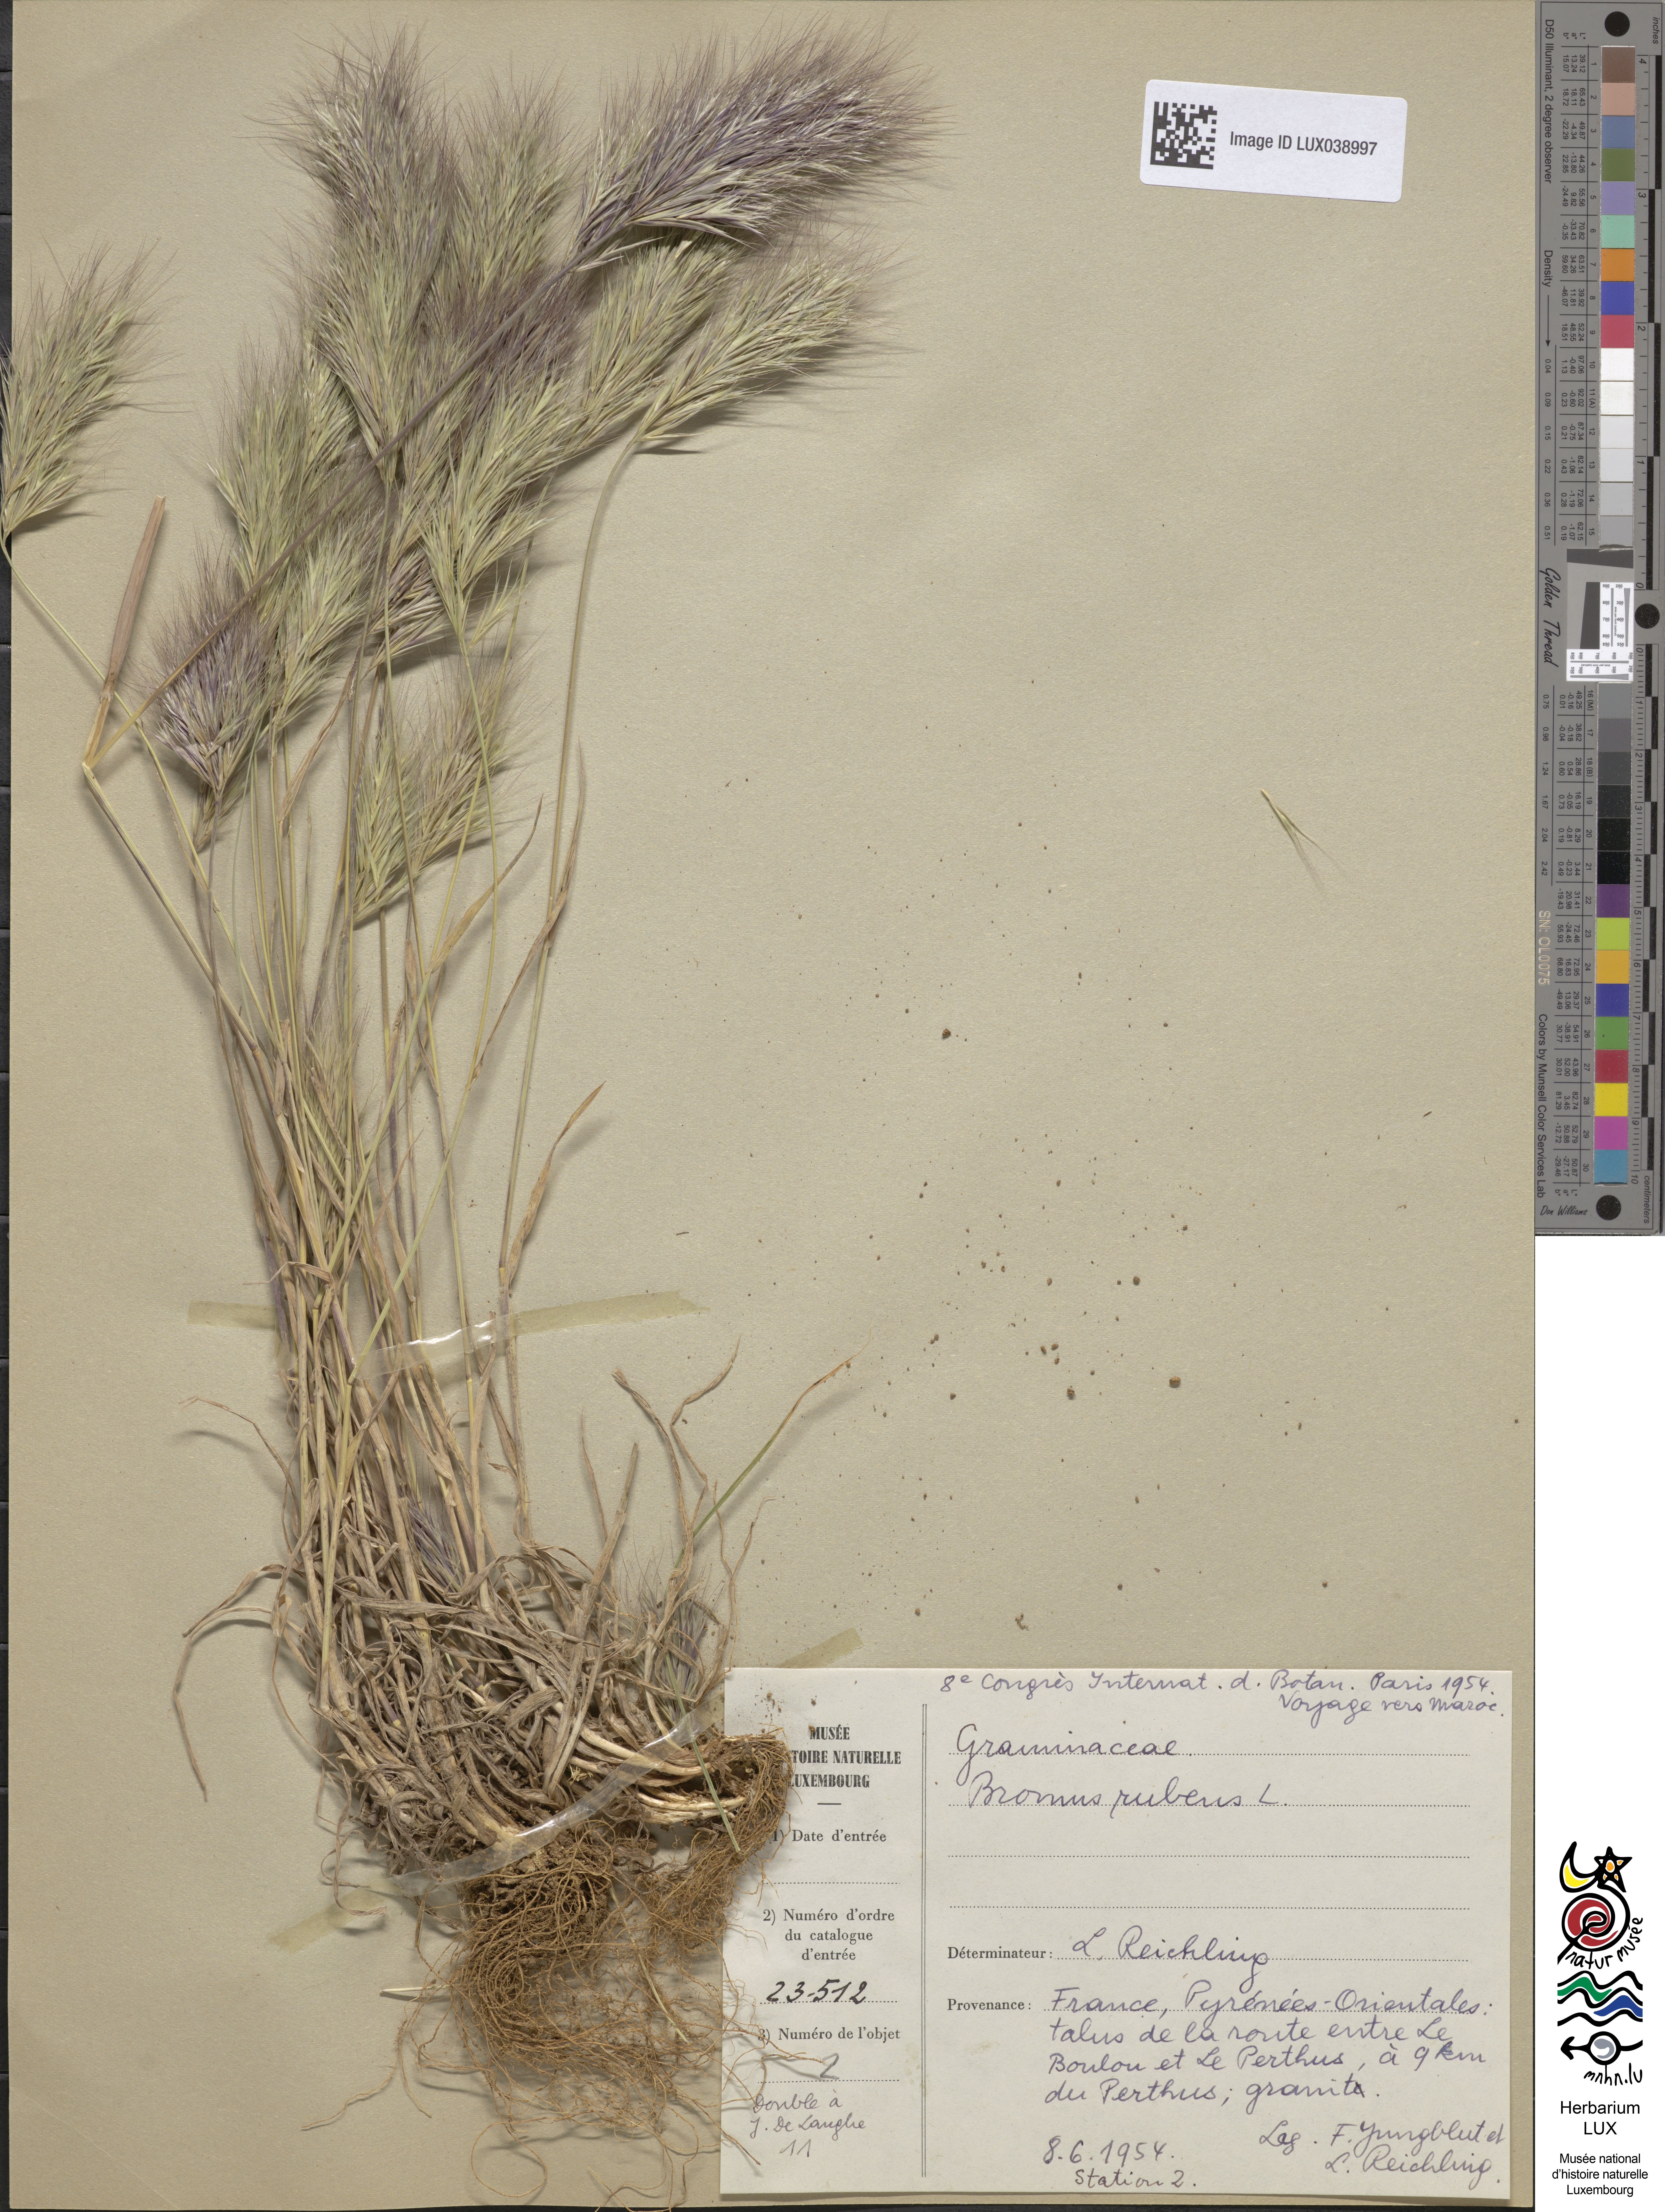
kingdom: Plantae
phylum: Tracheophyta
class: Liliopsida
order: Poales
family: Poaceae
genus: Bromus
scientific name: Bromus rubens
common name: Red brome
